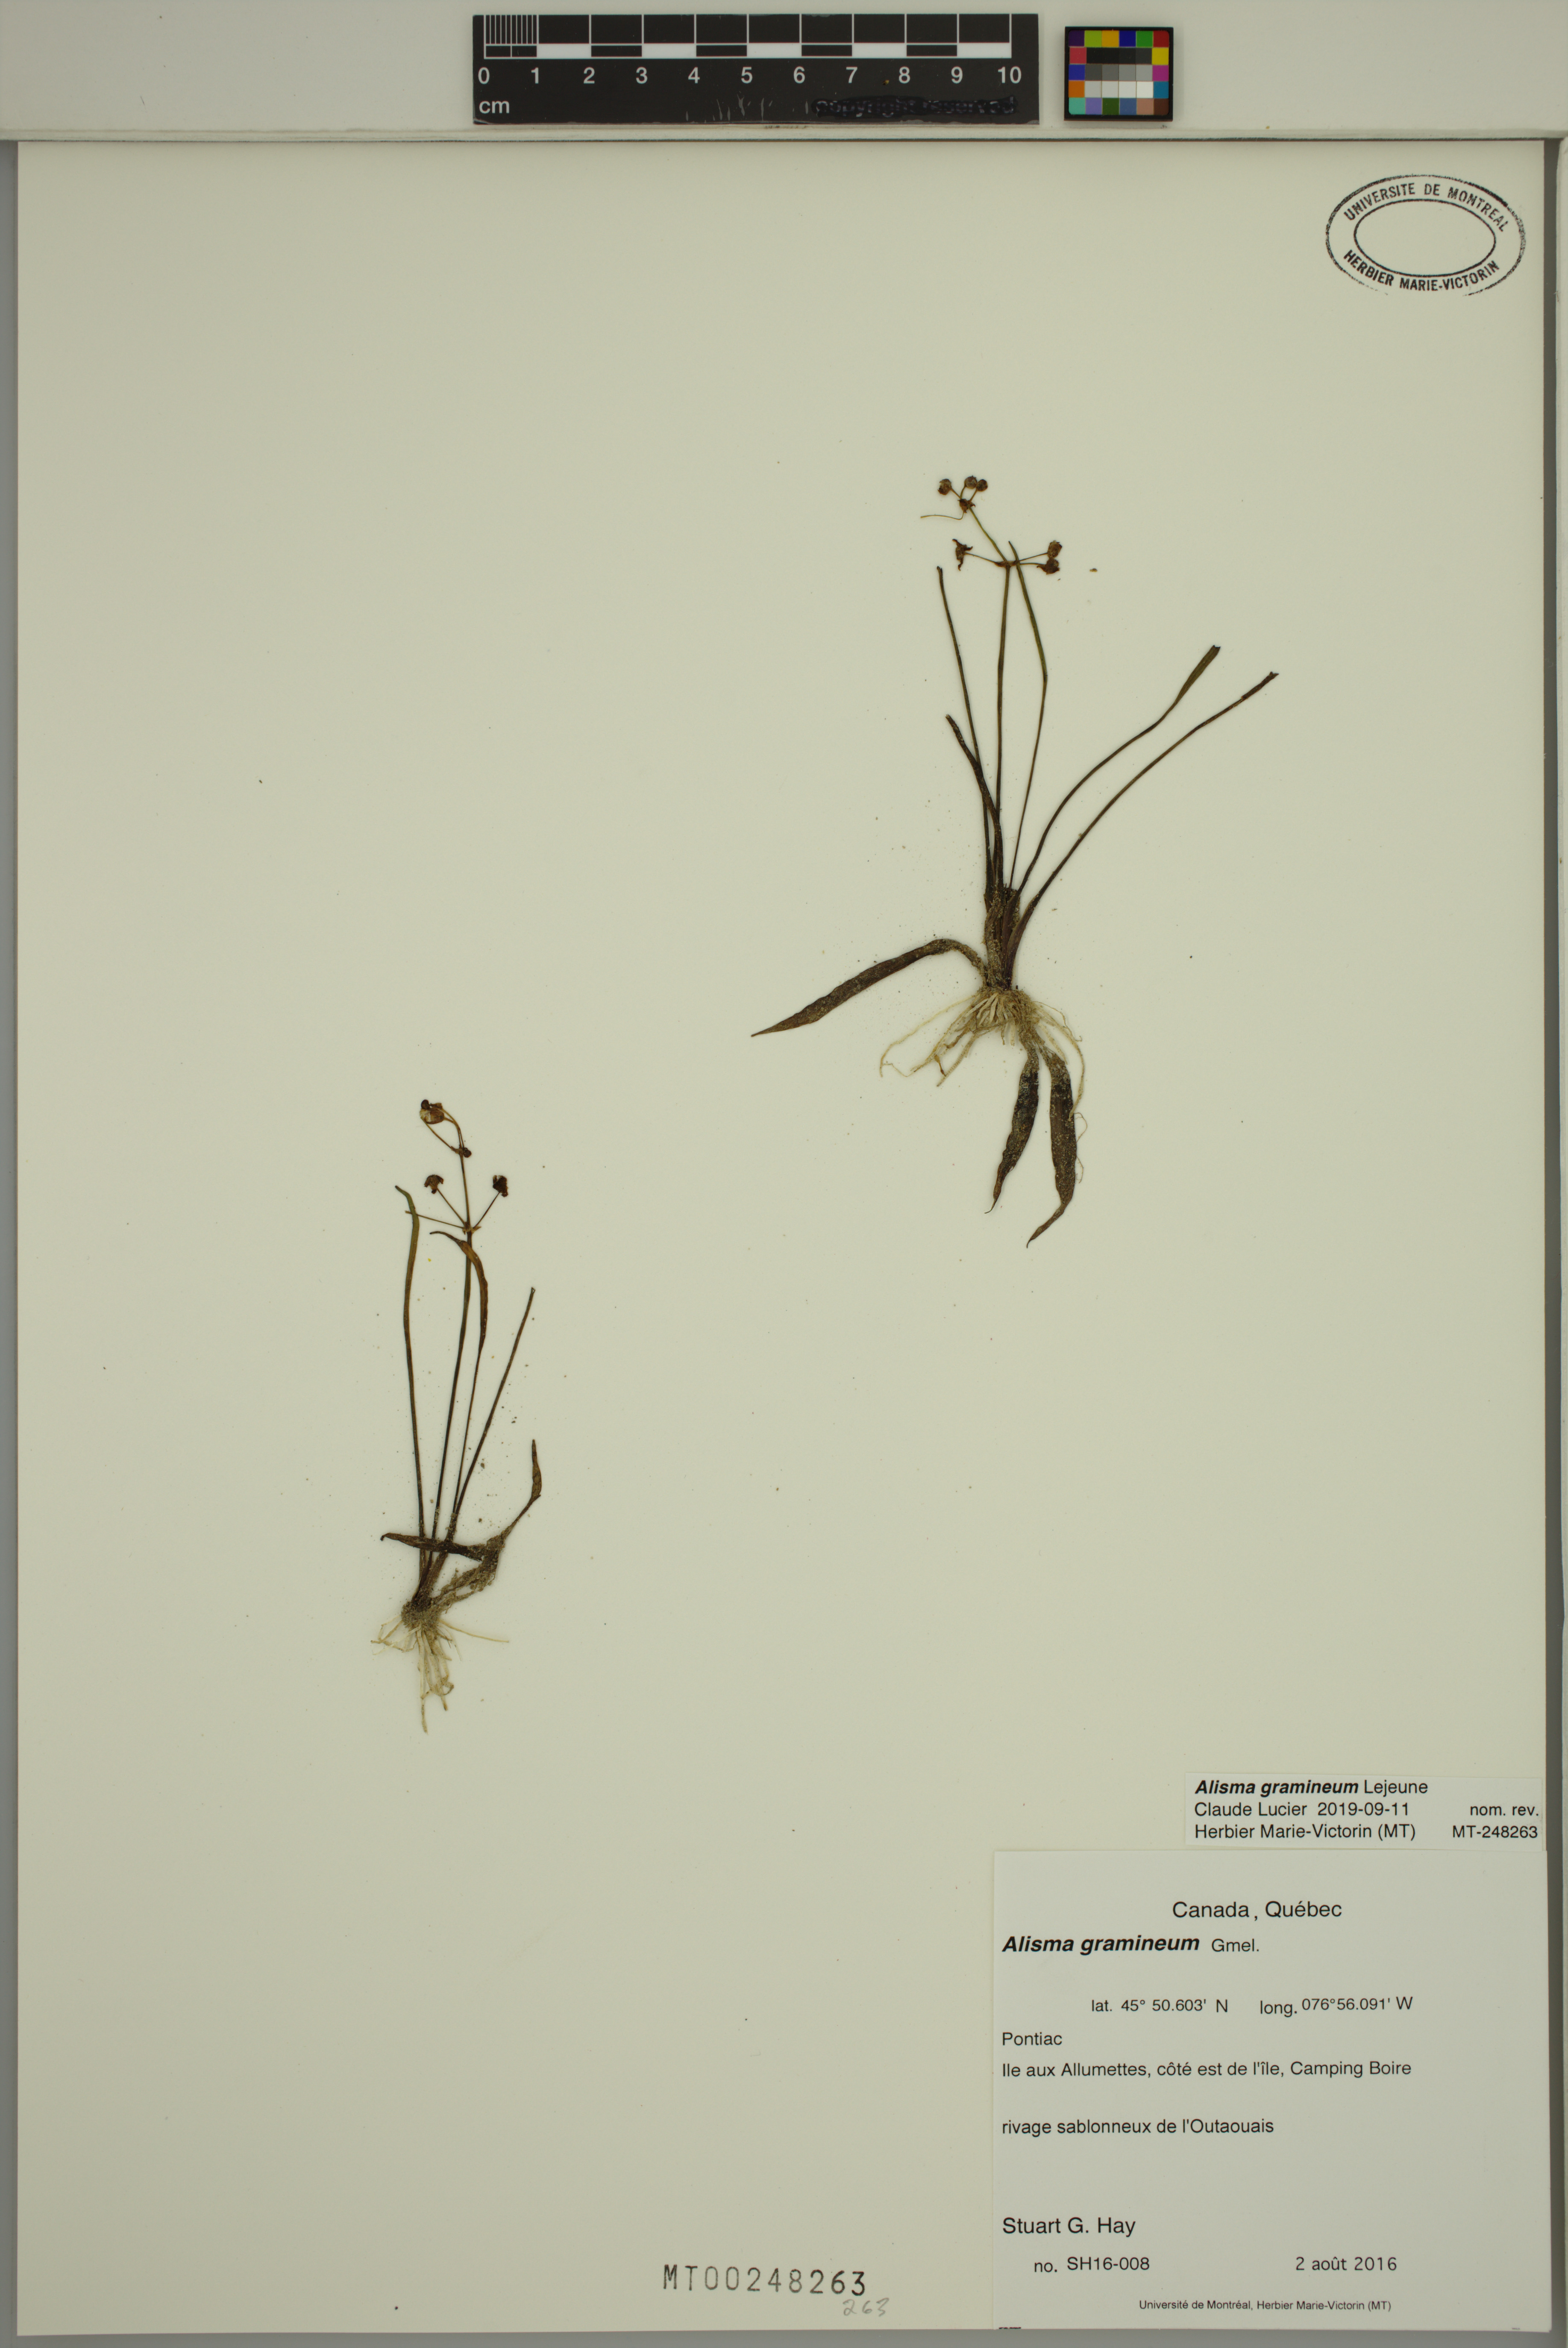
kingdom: Plantae
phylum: Tracheophyta
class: Liliopsida
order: Alismatales
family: Alismataceae
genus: Alisma
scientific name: Alisma gramineum
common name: Ribbon-leaved water-plantain
